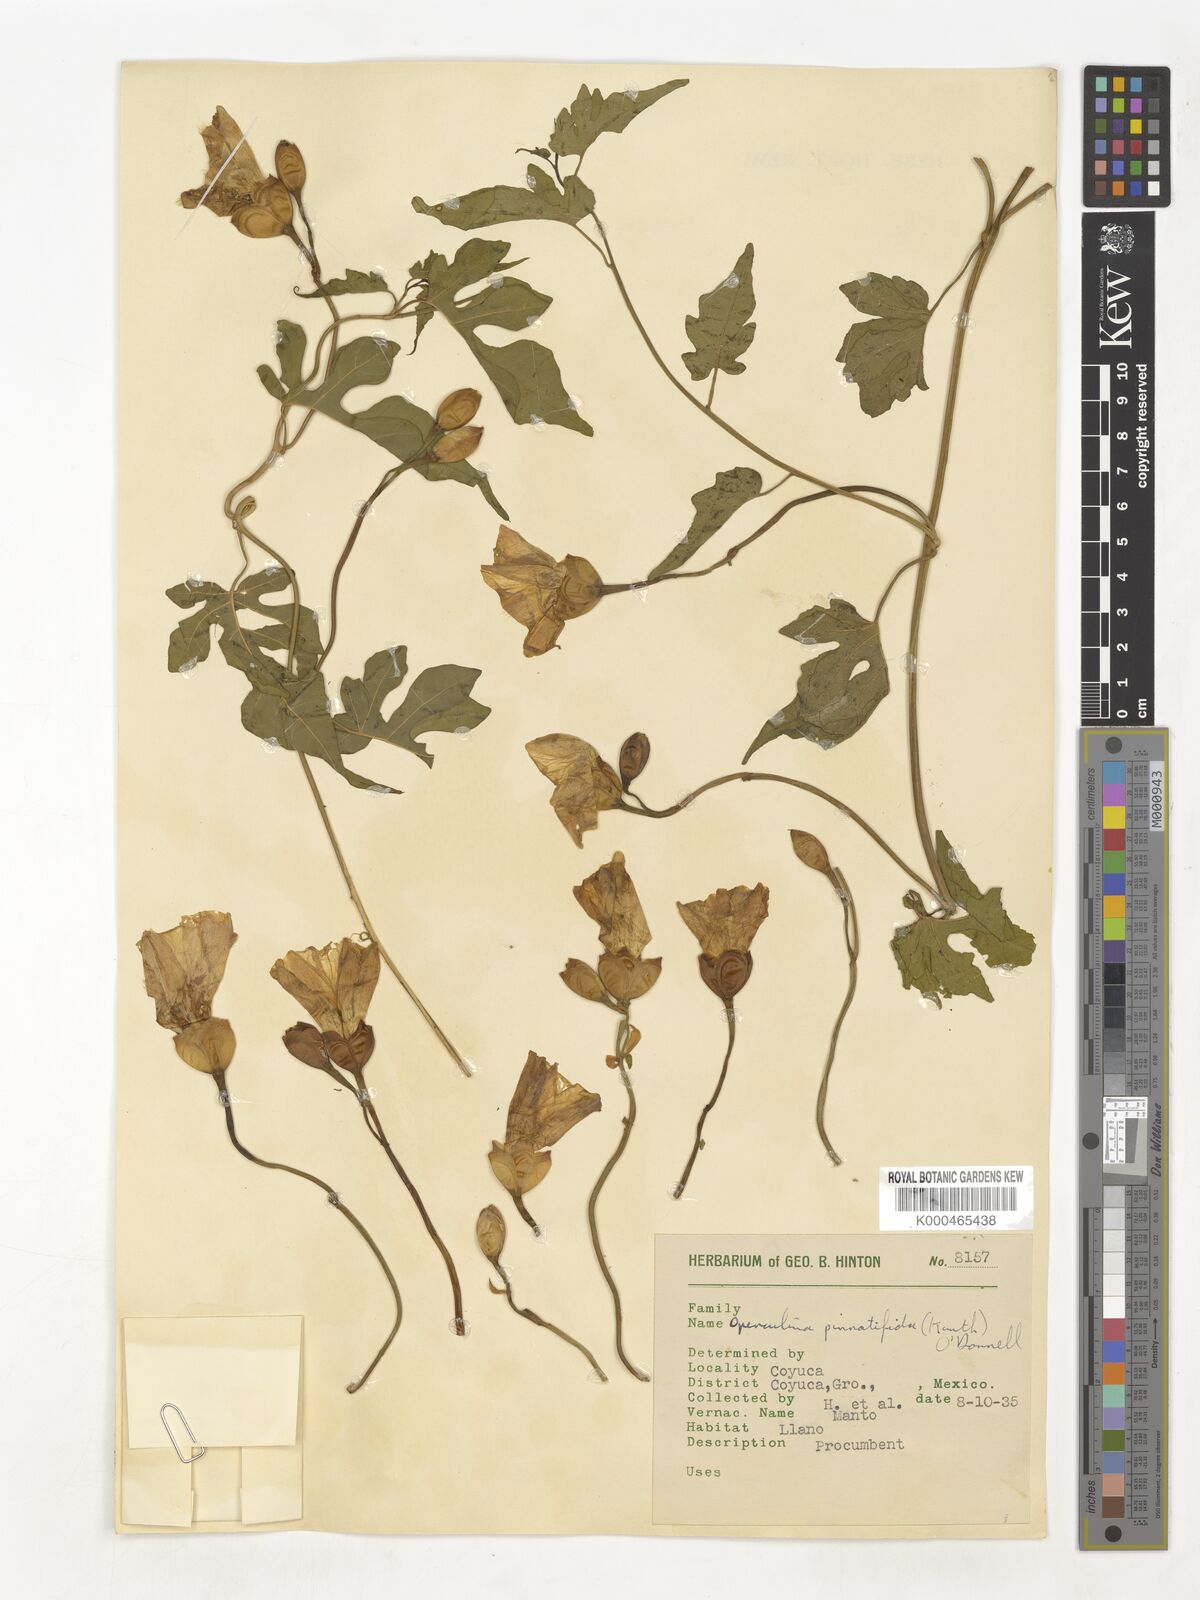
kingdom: Plantae
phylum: Tracheophyta
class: Magnoliopsida
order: Solanales
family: Convolvulaceae
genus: Operculina
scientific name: Operculina
